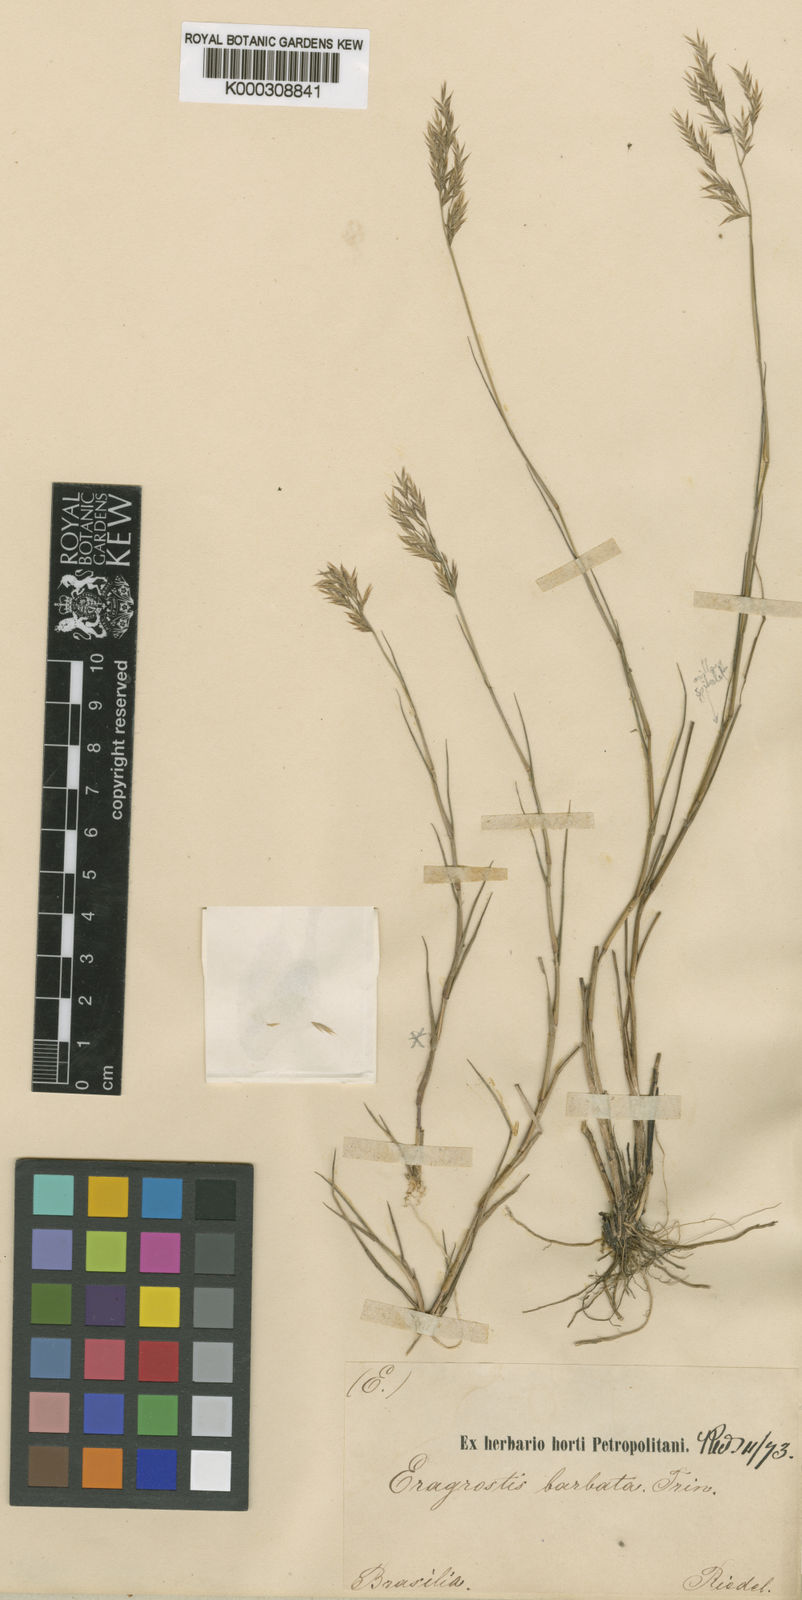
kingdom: Plantae
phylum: Tracheophyta
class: Liliopsida
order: Poales
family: Poaceae
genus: Steirachne
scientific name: Steirachne barbata
